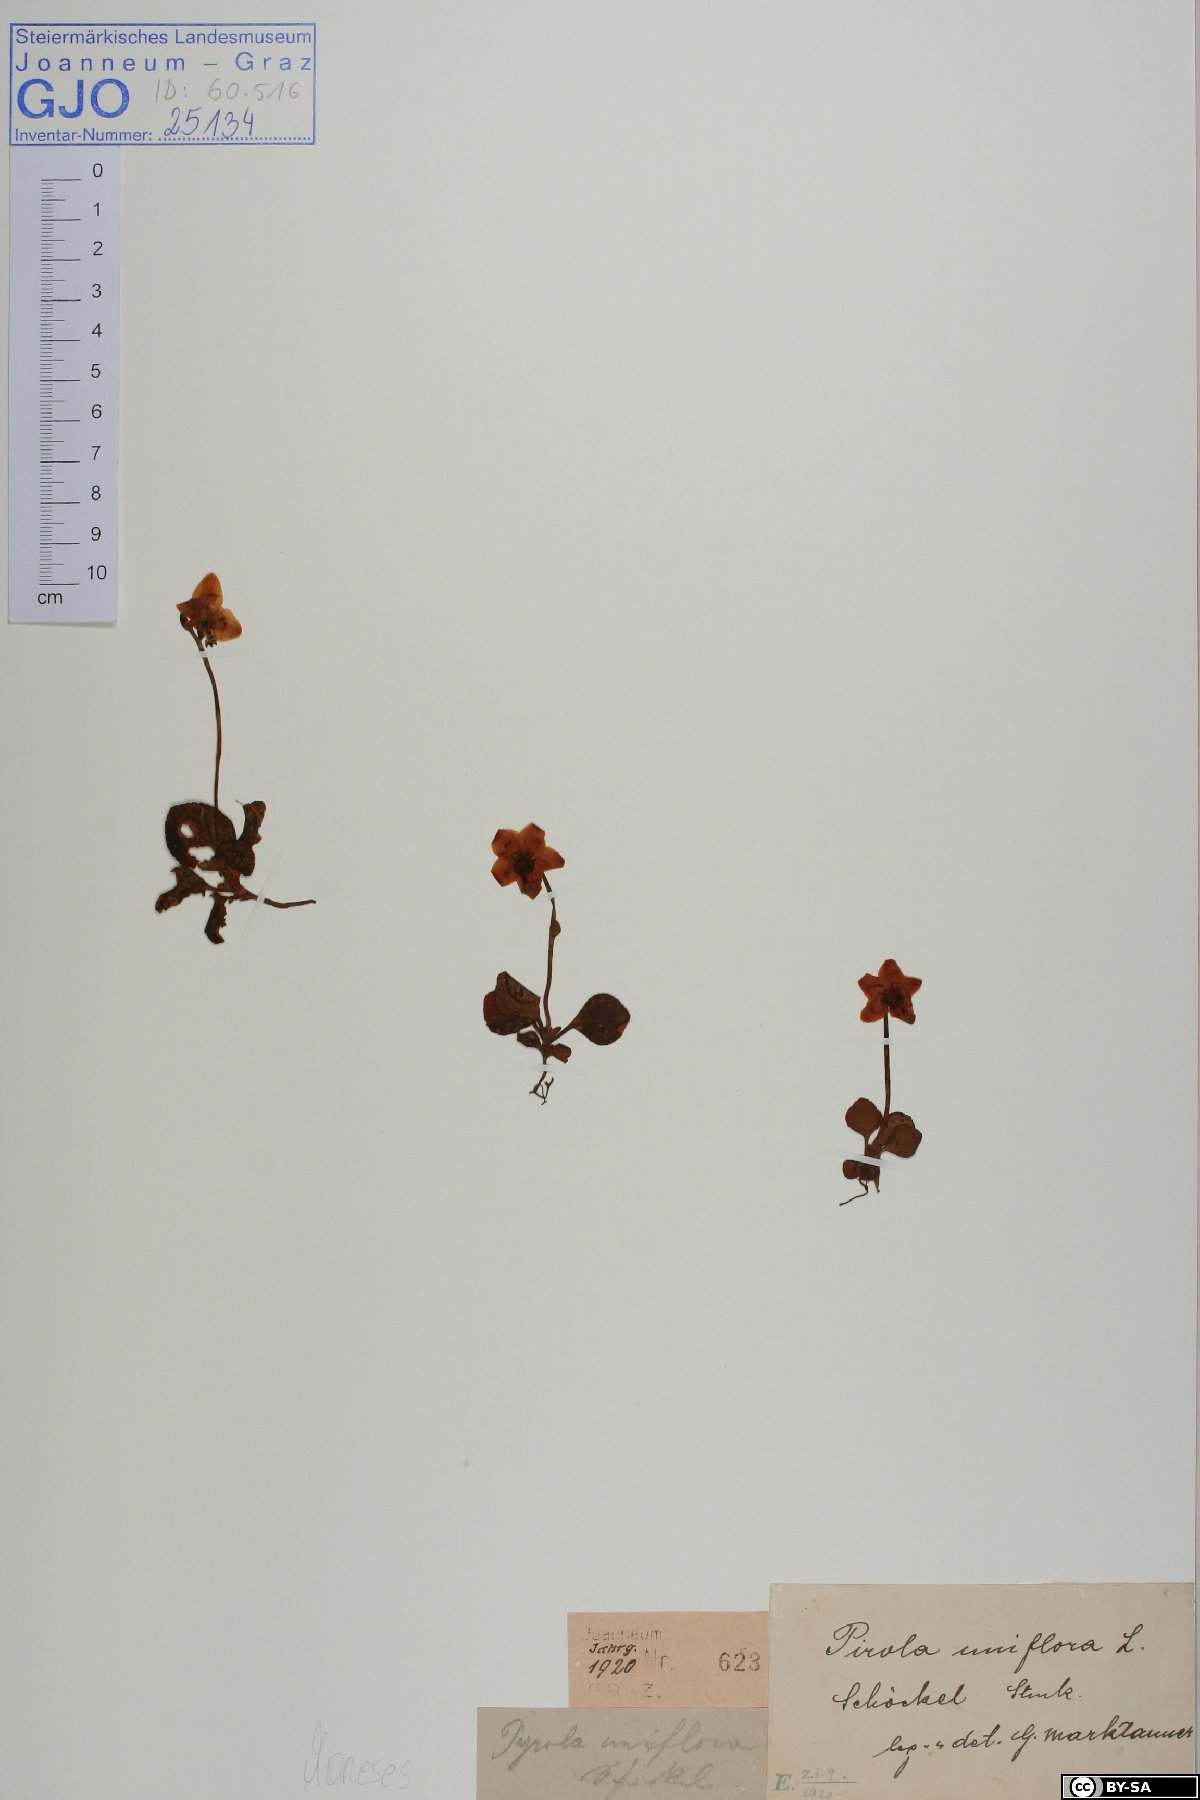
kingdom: Plantae
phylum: Tracheophyta
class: Magnoliopsida
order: Ericales
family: Ericaceae
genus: Moneses
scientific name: Moneses uniflora
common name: One-flowered wintergreen
